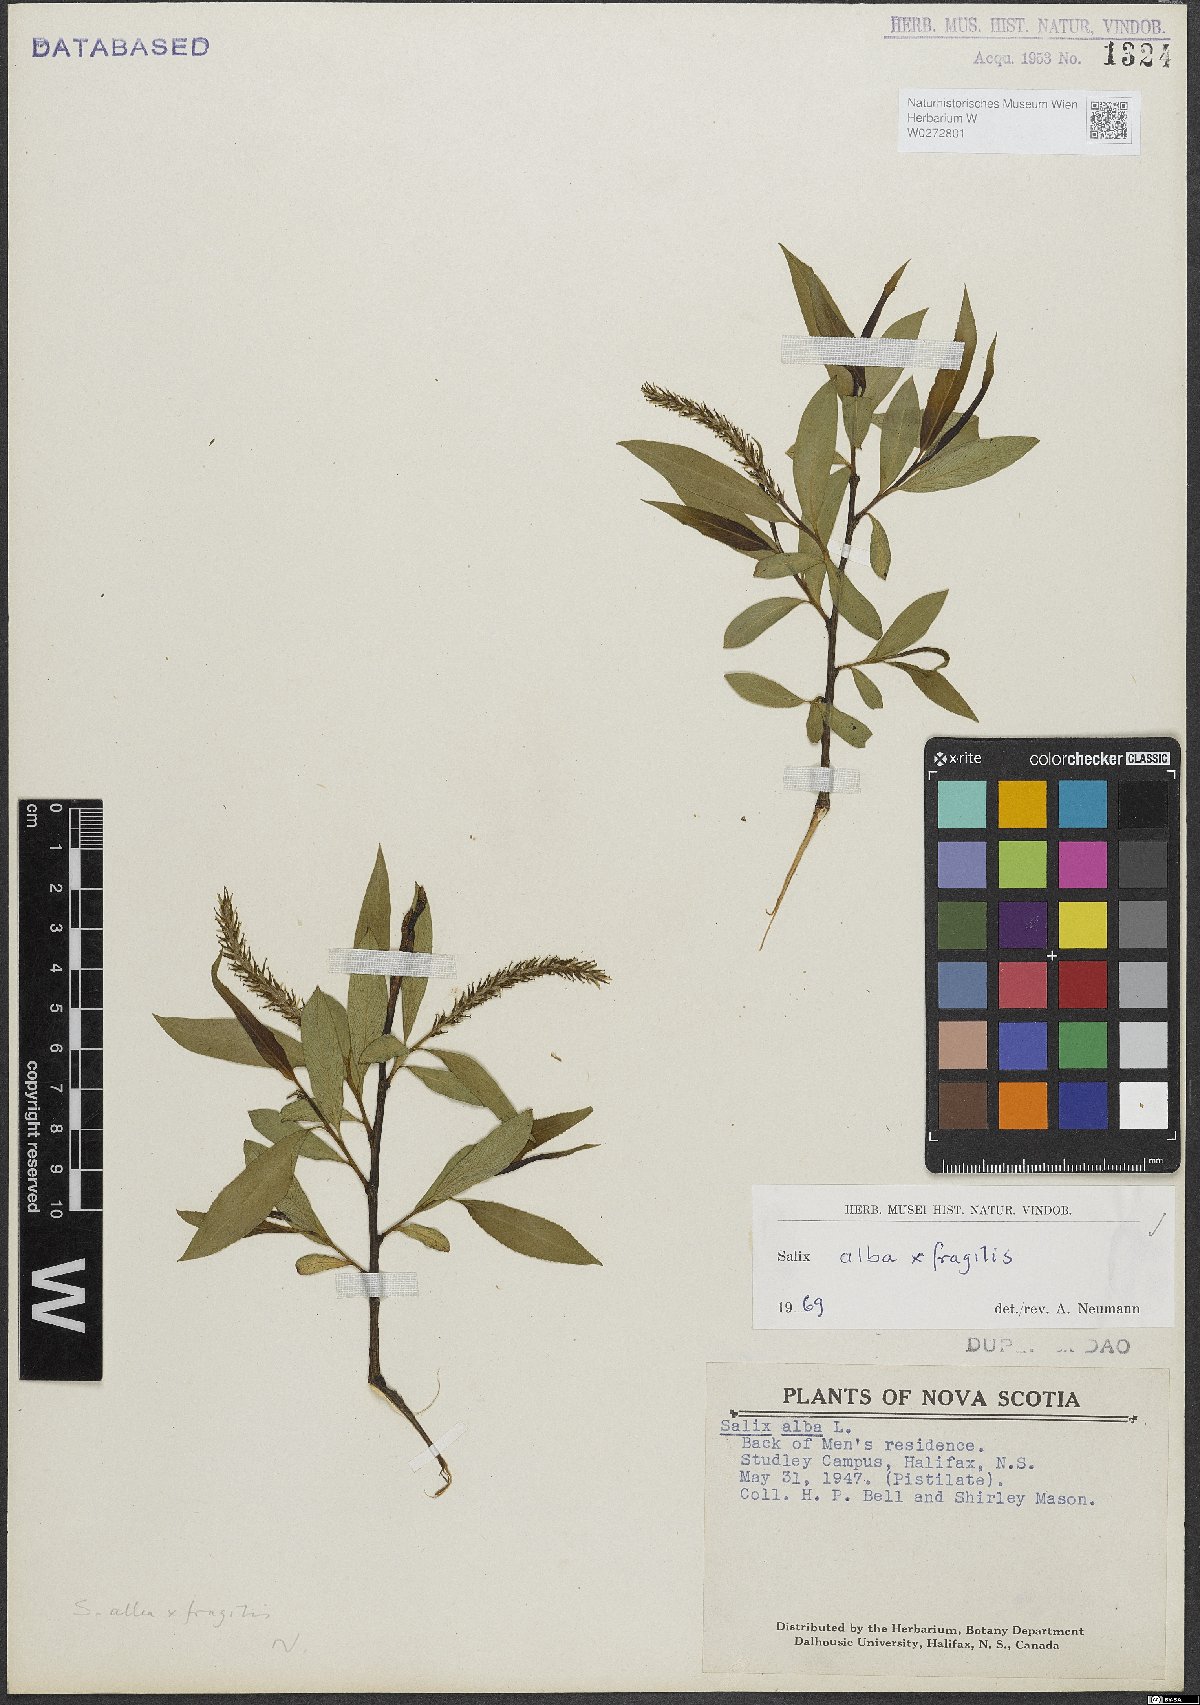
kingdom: Plantae
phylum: Tracheophyta
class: Magnoliopsida
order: Malpighiales
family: Salicaceae
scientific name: Salicaceae
